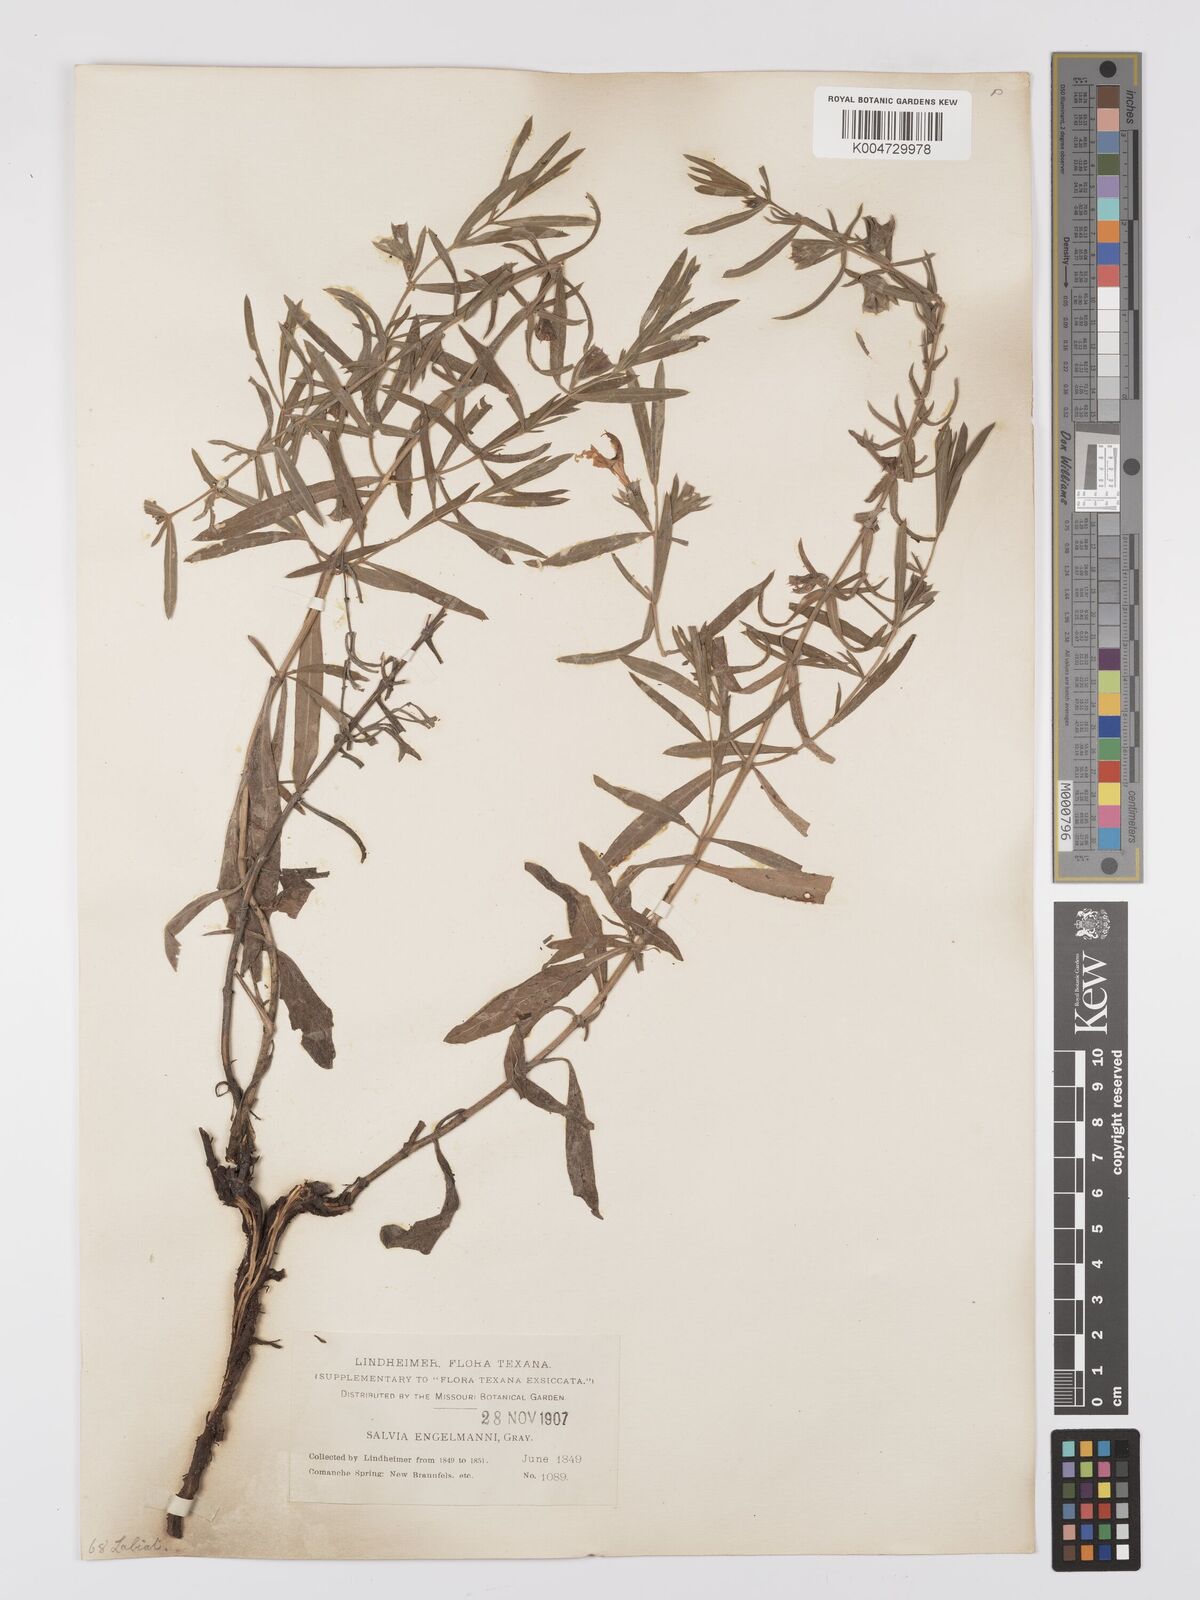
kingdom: Plantae
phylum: Tracheophyta
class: Magnoliopsida
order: Lamiales
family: Lamiaceae
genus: Salvia
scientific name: Salvia
